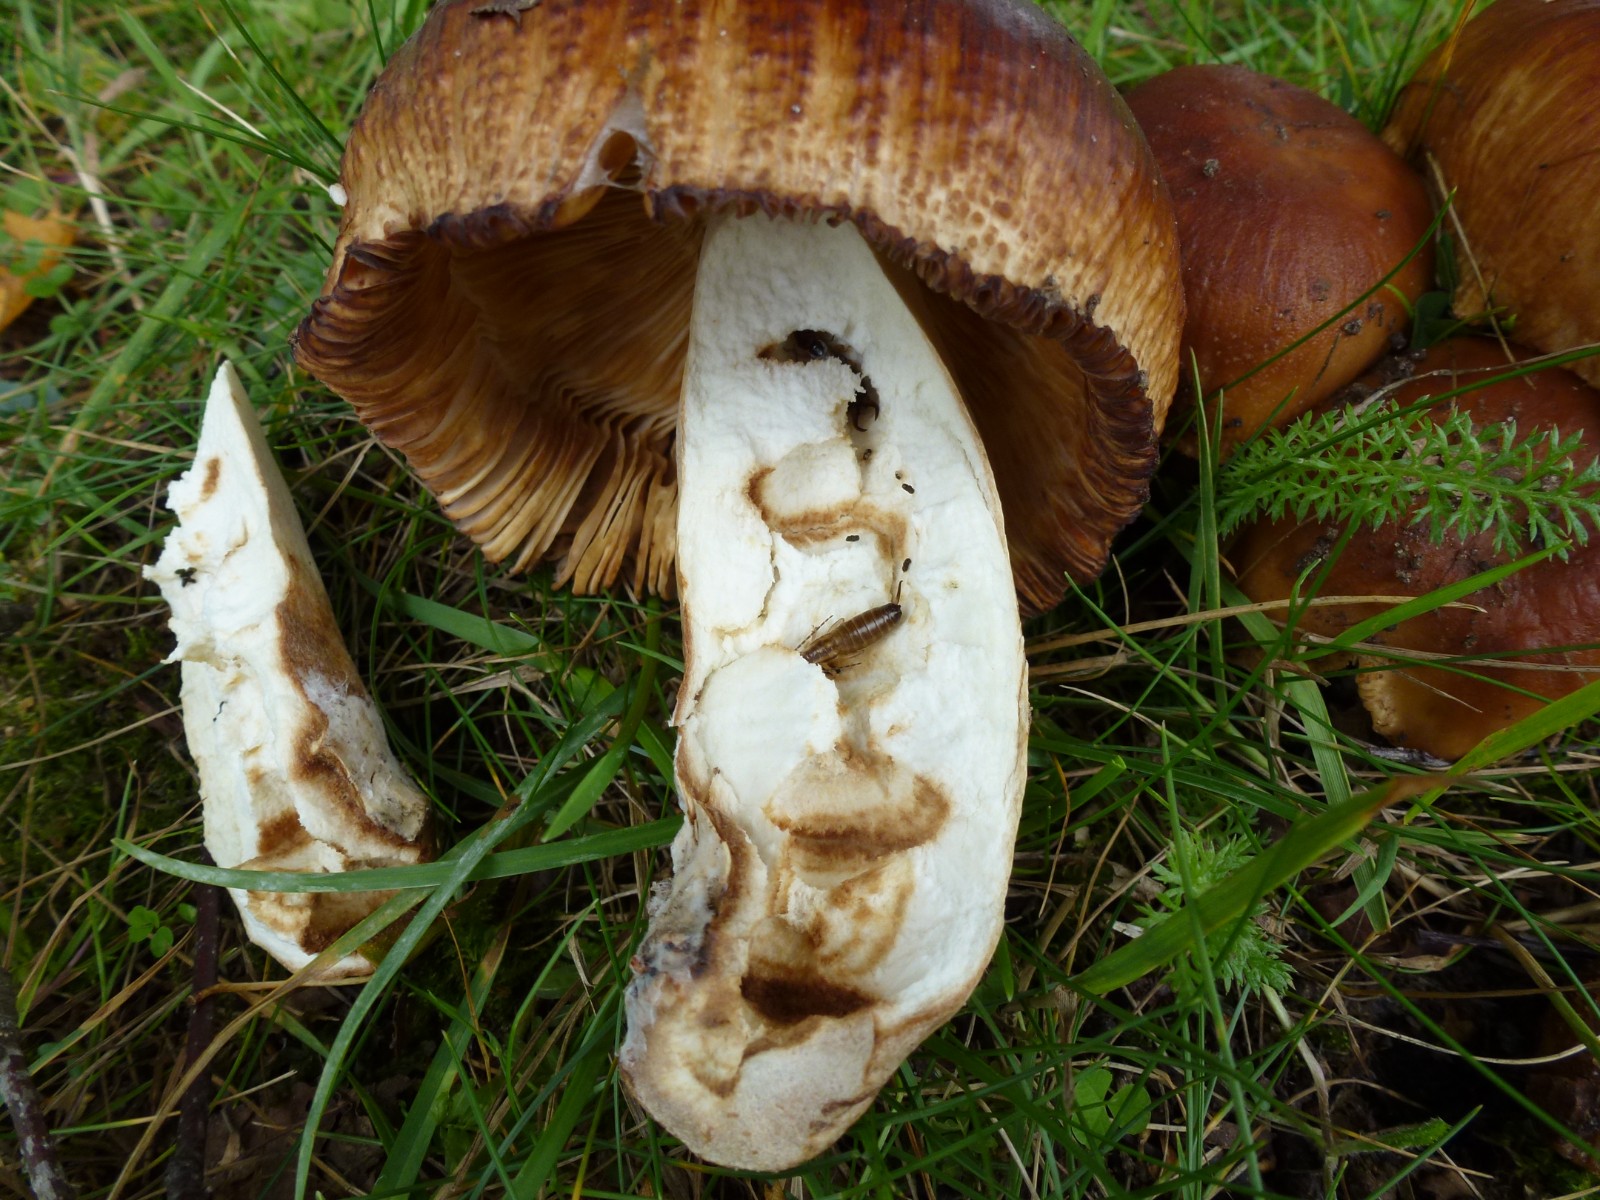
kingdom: Fungi
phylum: Basidiomycota
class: Agaricomycetes
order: Russulales
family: Russulaceae
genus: Russula
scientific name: Russula
